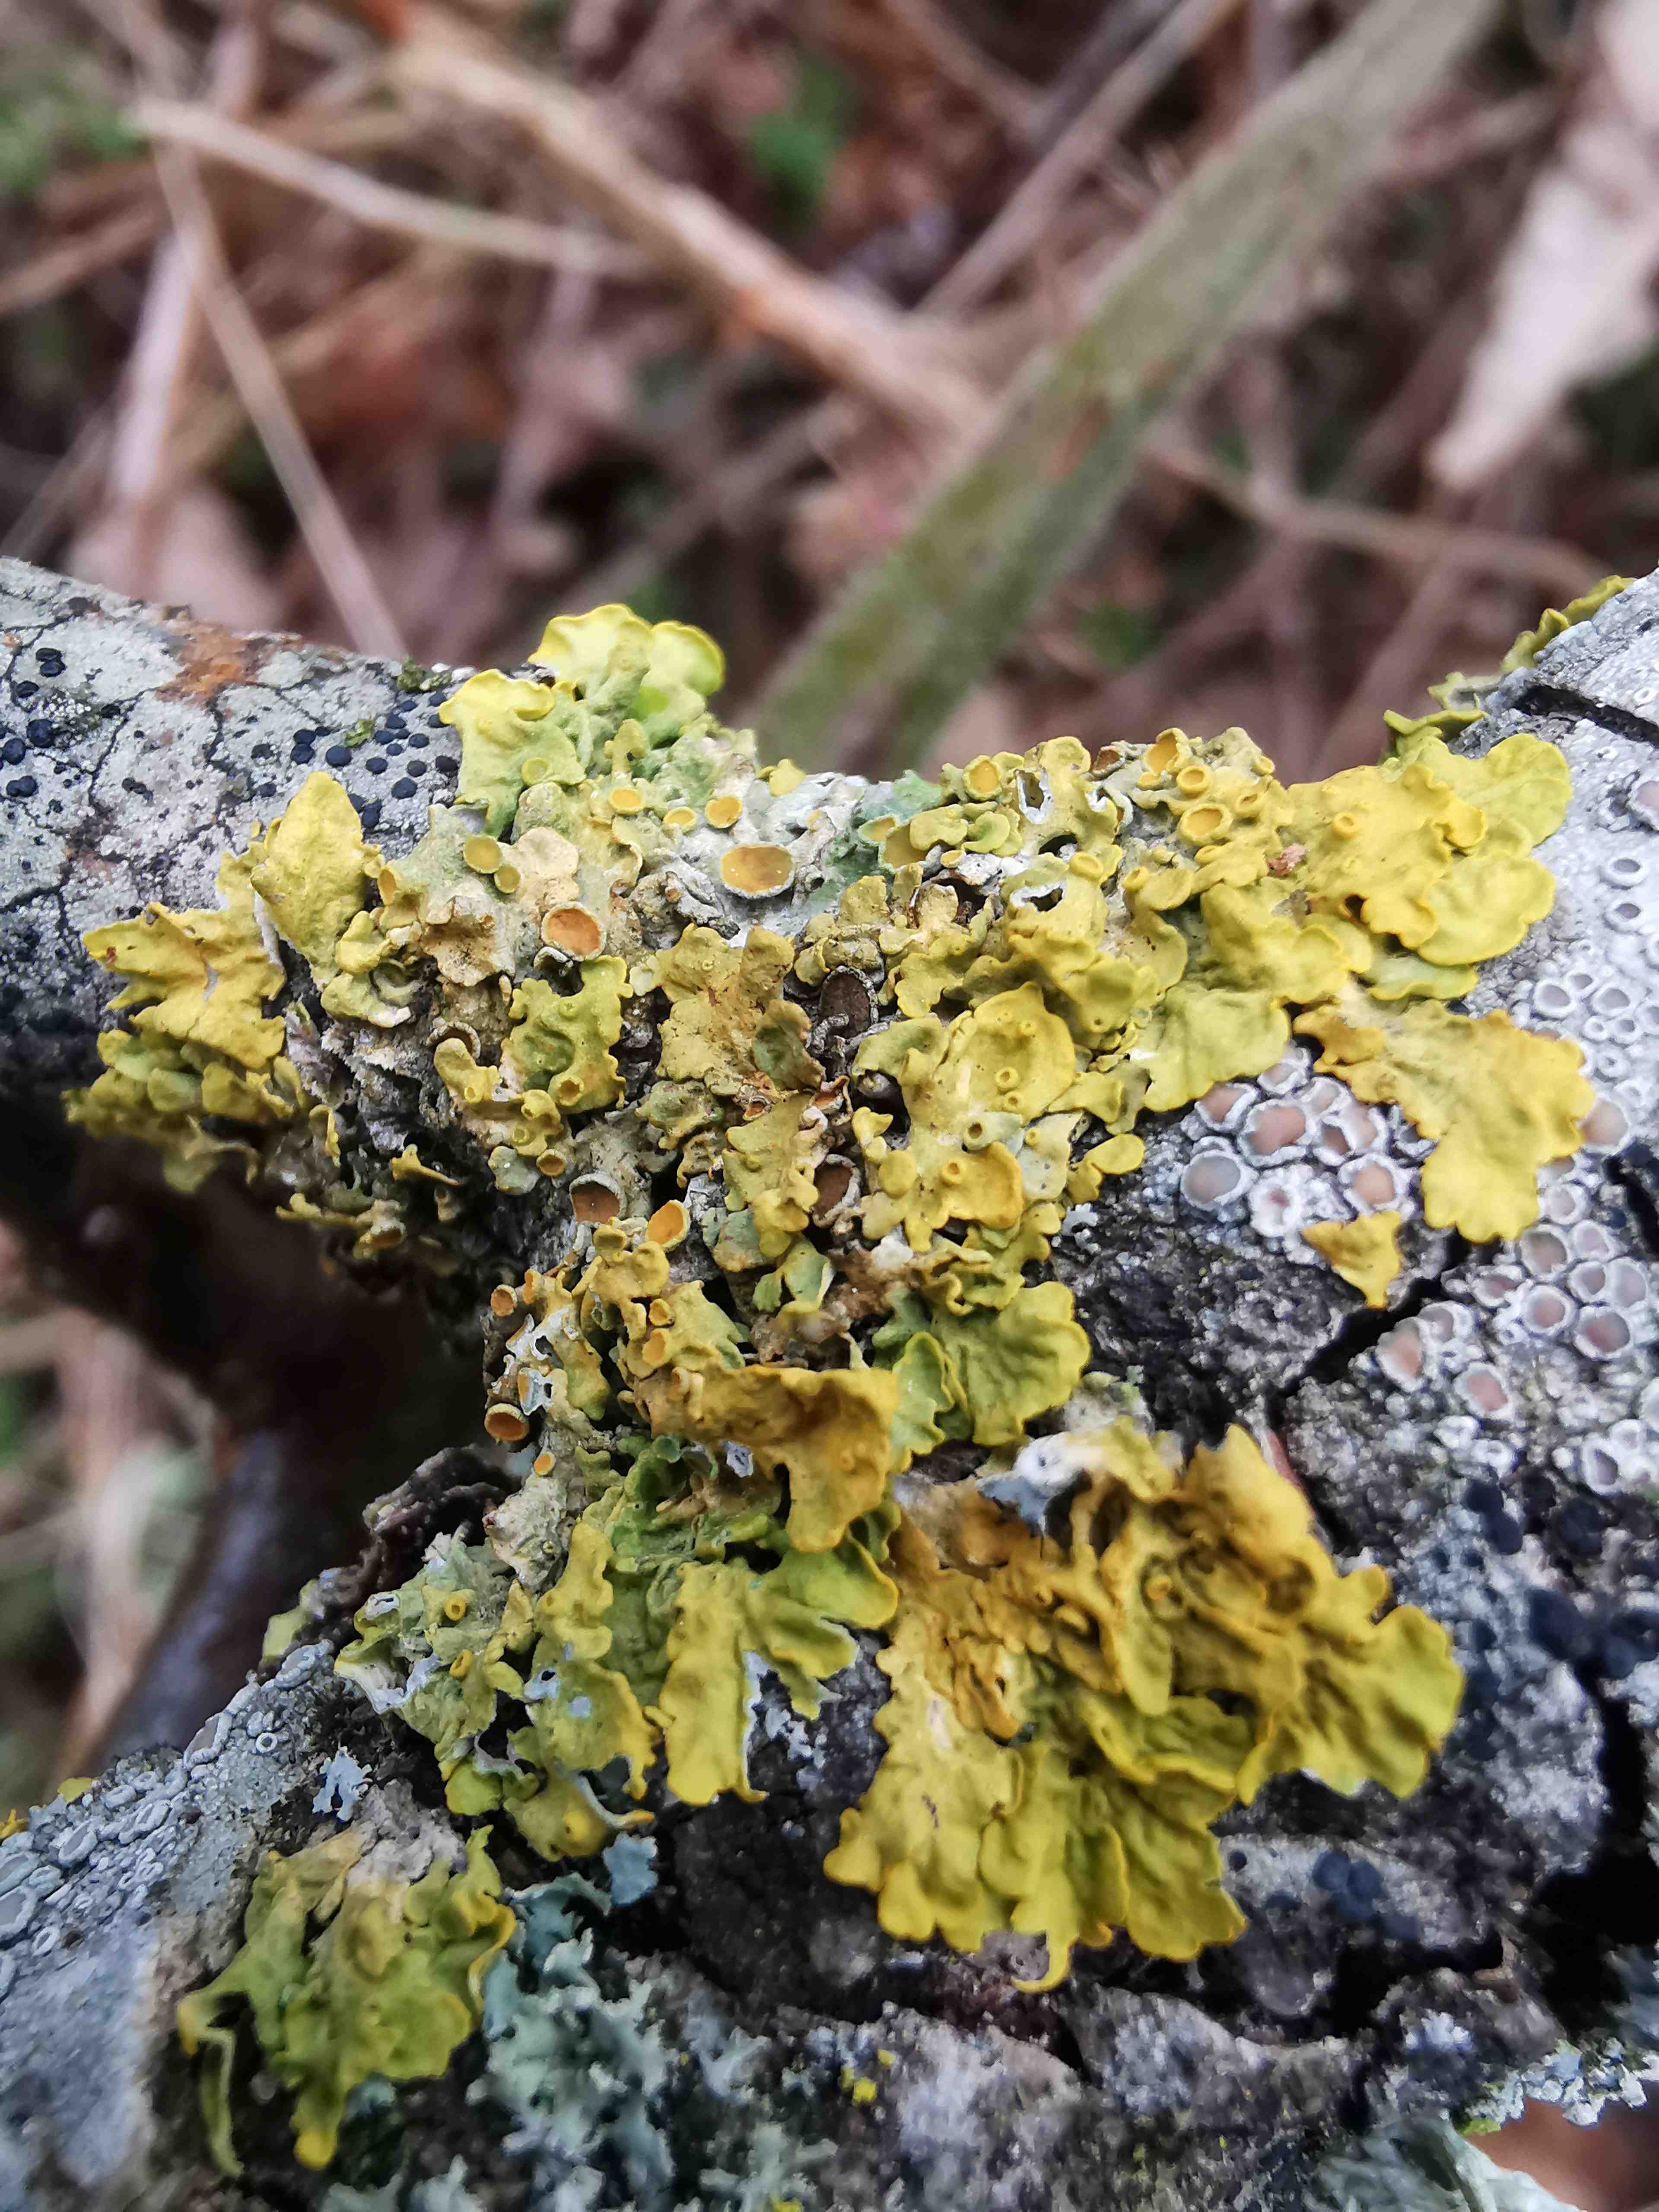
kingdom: Fungi
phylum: Ascomycota
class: Lecanoromycetes
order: Teloschistales
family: Teloschistaceae
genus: Xanthoria
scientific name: Xanthoria parietina
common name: almindelig væggelav
